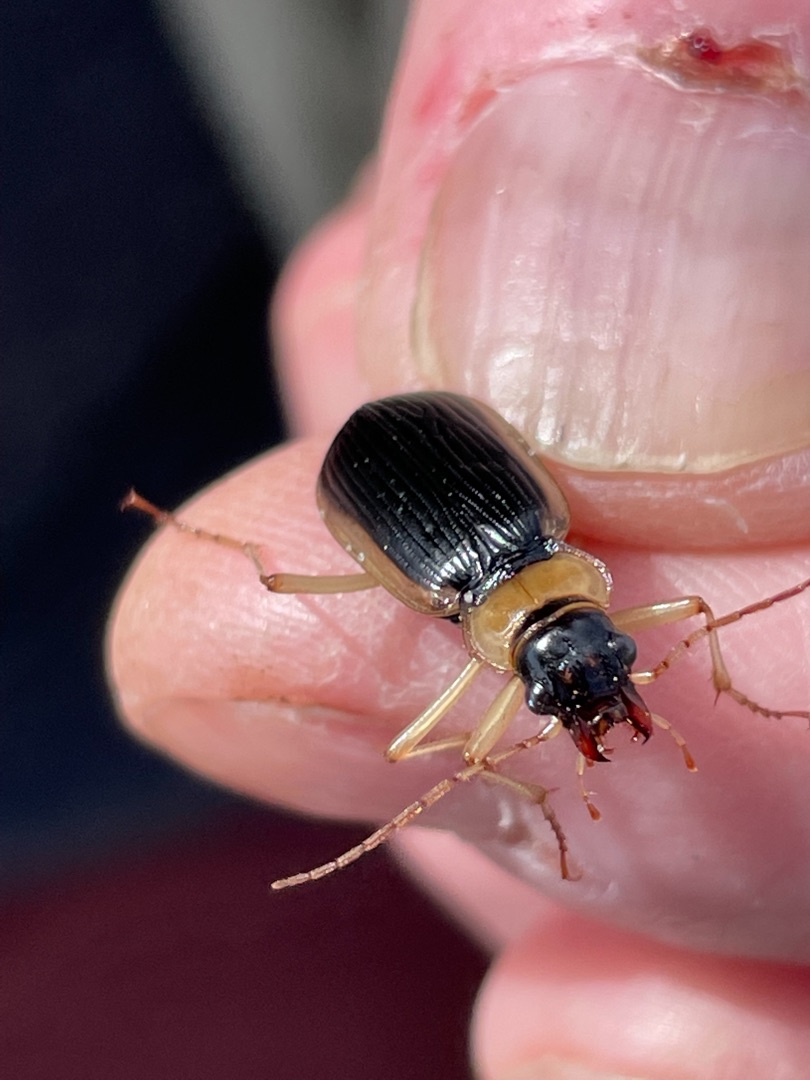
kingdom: Animalia
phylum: Arthropoda
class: Insecta
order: Coleoptera
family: Carabidae
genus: Nebria
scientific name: Nebria livida
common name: Gulrandet fladløber
